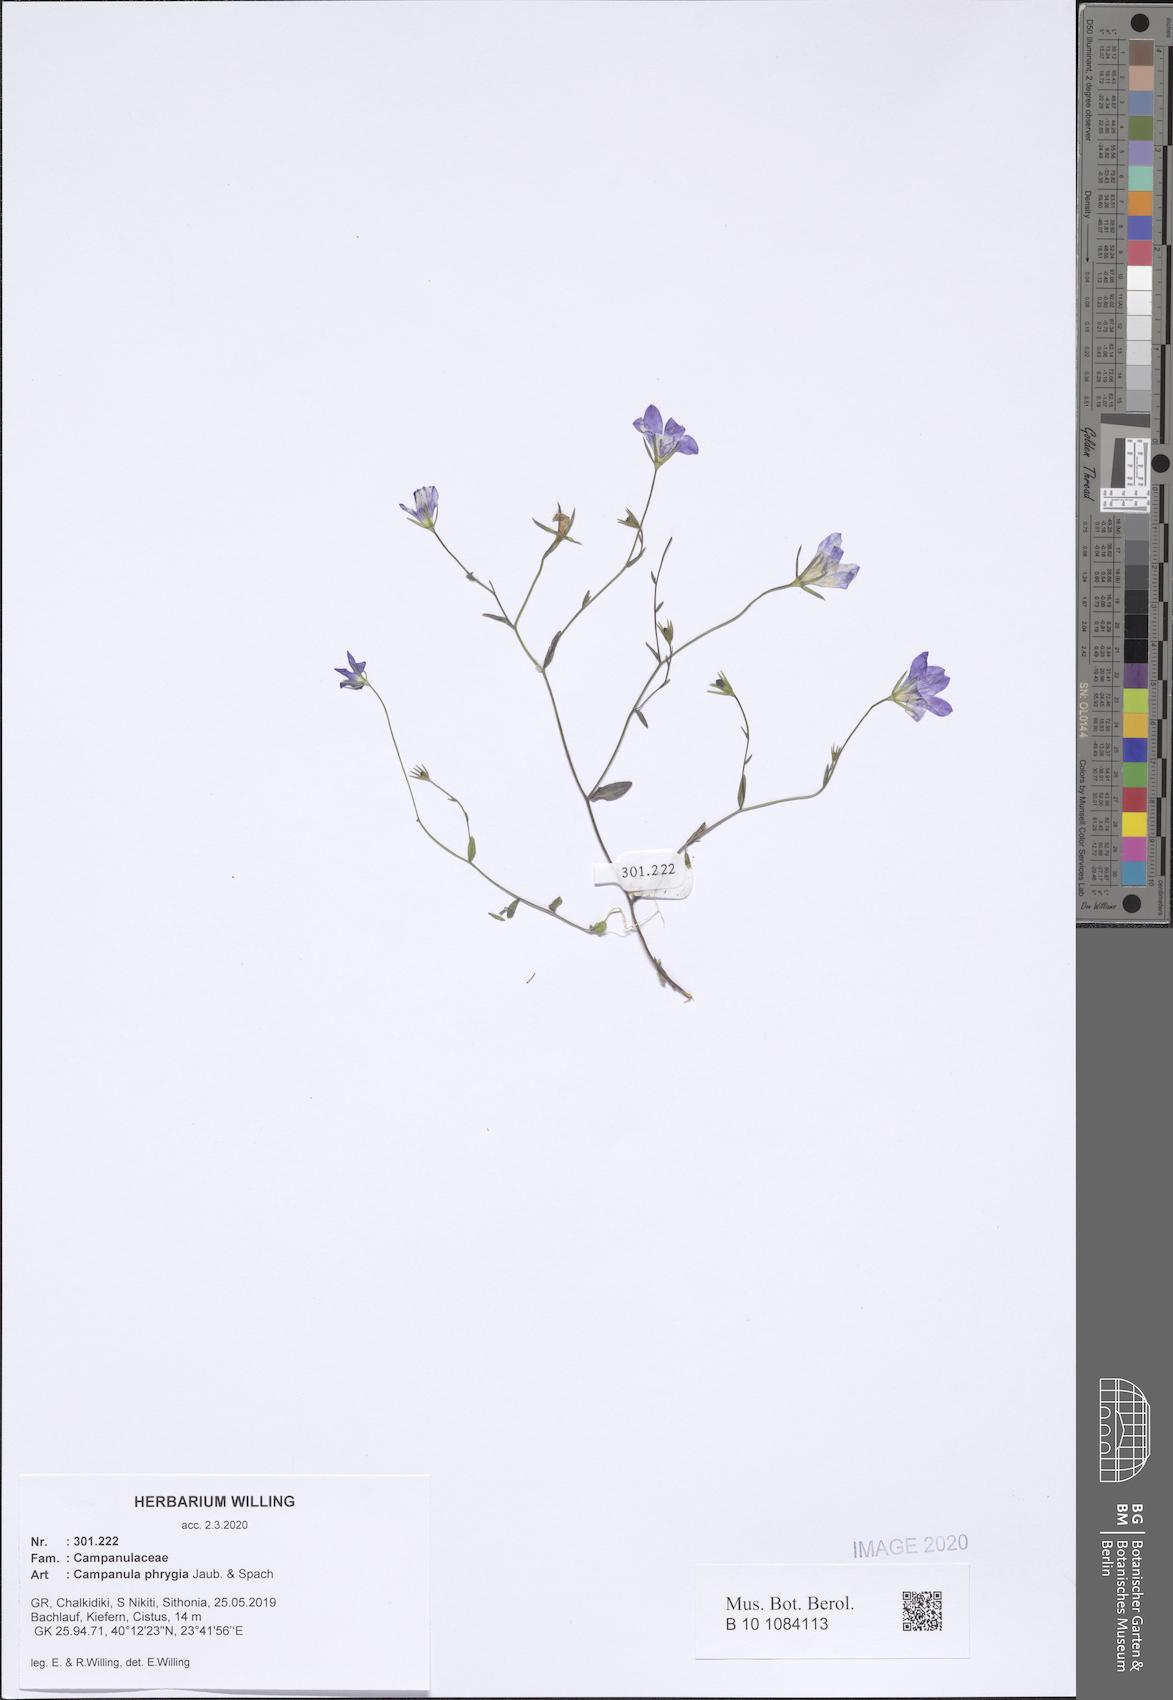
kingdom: Plantae
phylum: Tracheophyta
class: Magnoliopsida
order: Asterales
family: Campanulaceae
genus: Campanula
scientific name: Campanula phrygia
